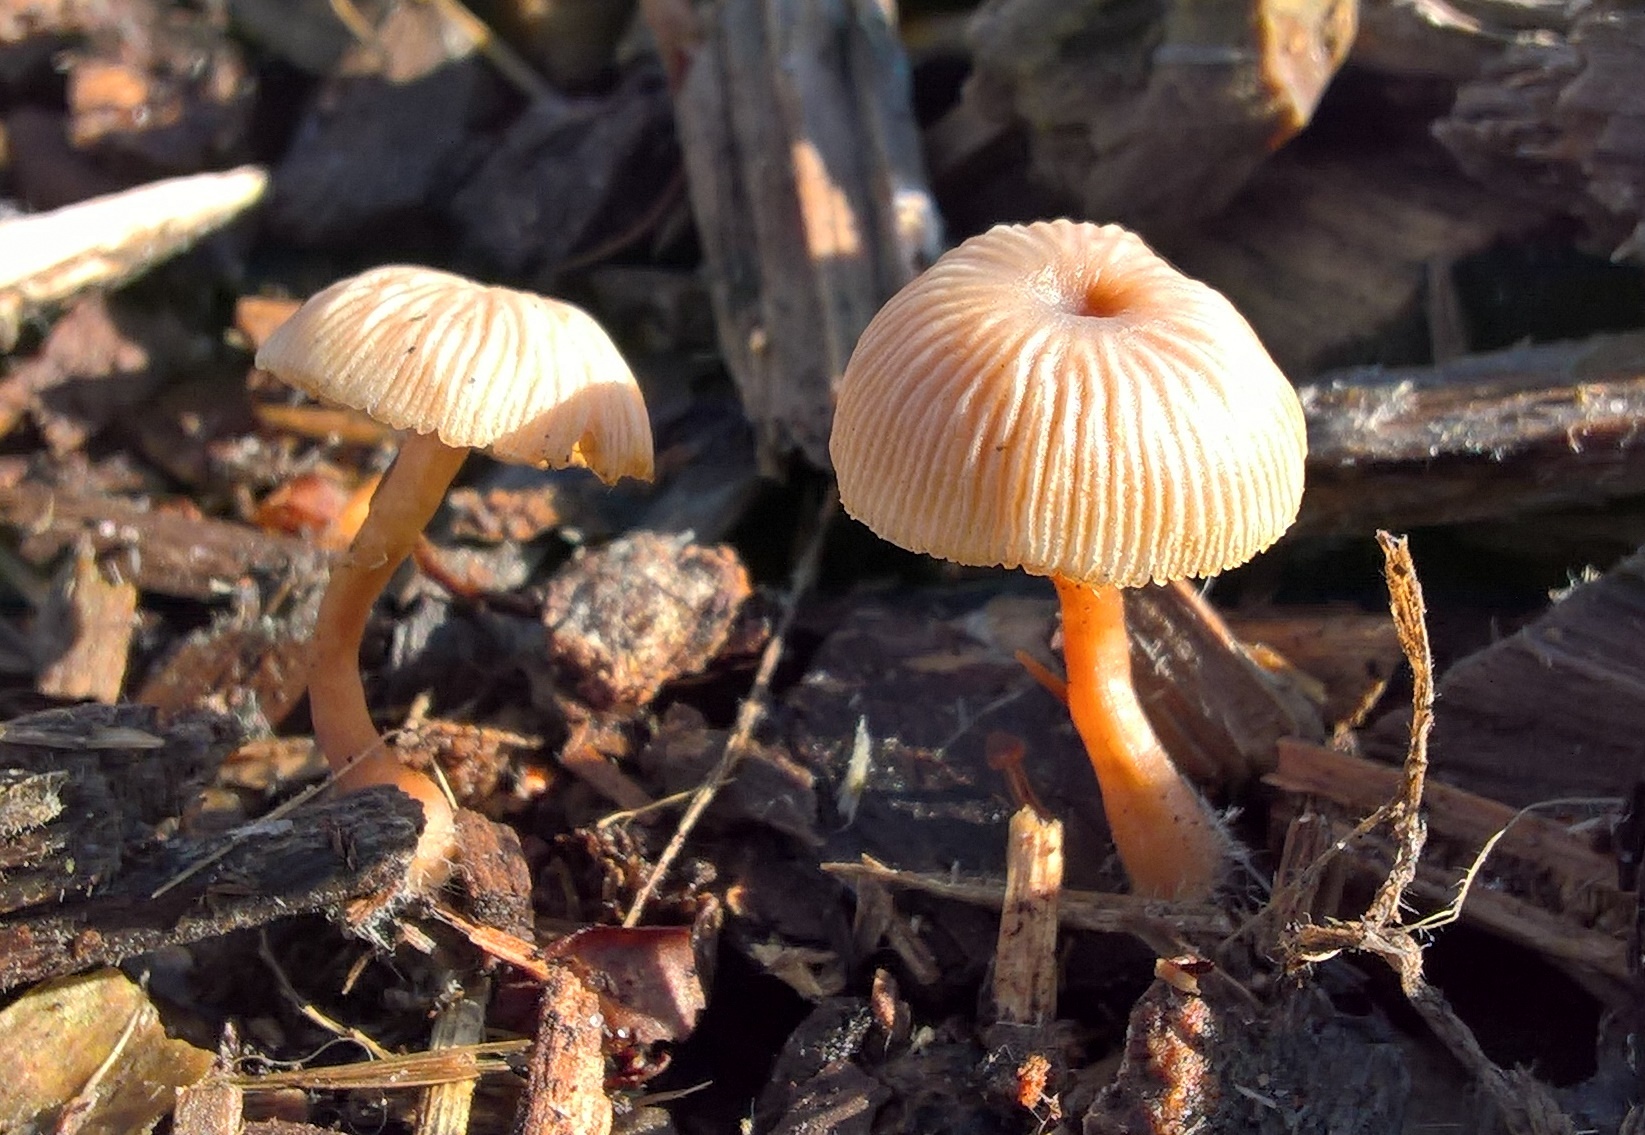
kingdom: Fungi
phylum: Basidiomycota
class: Agaricomycetes
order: Agaricales
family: Tubariaceae
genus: Tubaria
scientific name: Tubaria furfuracea
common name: kliddet fnughat
